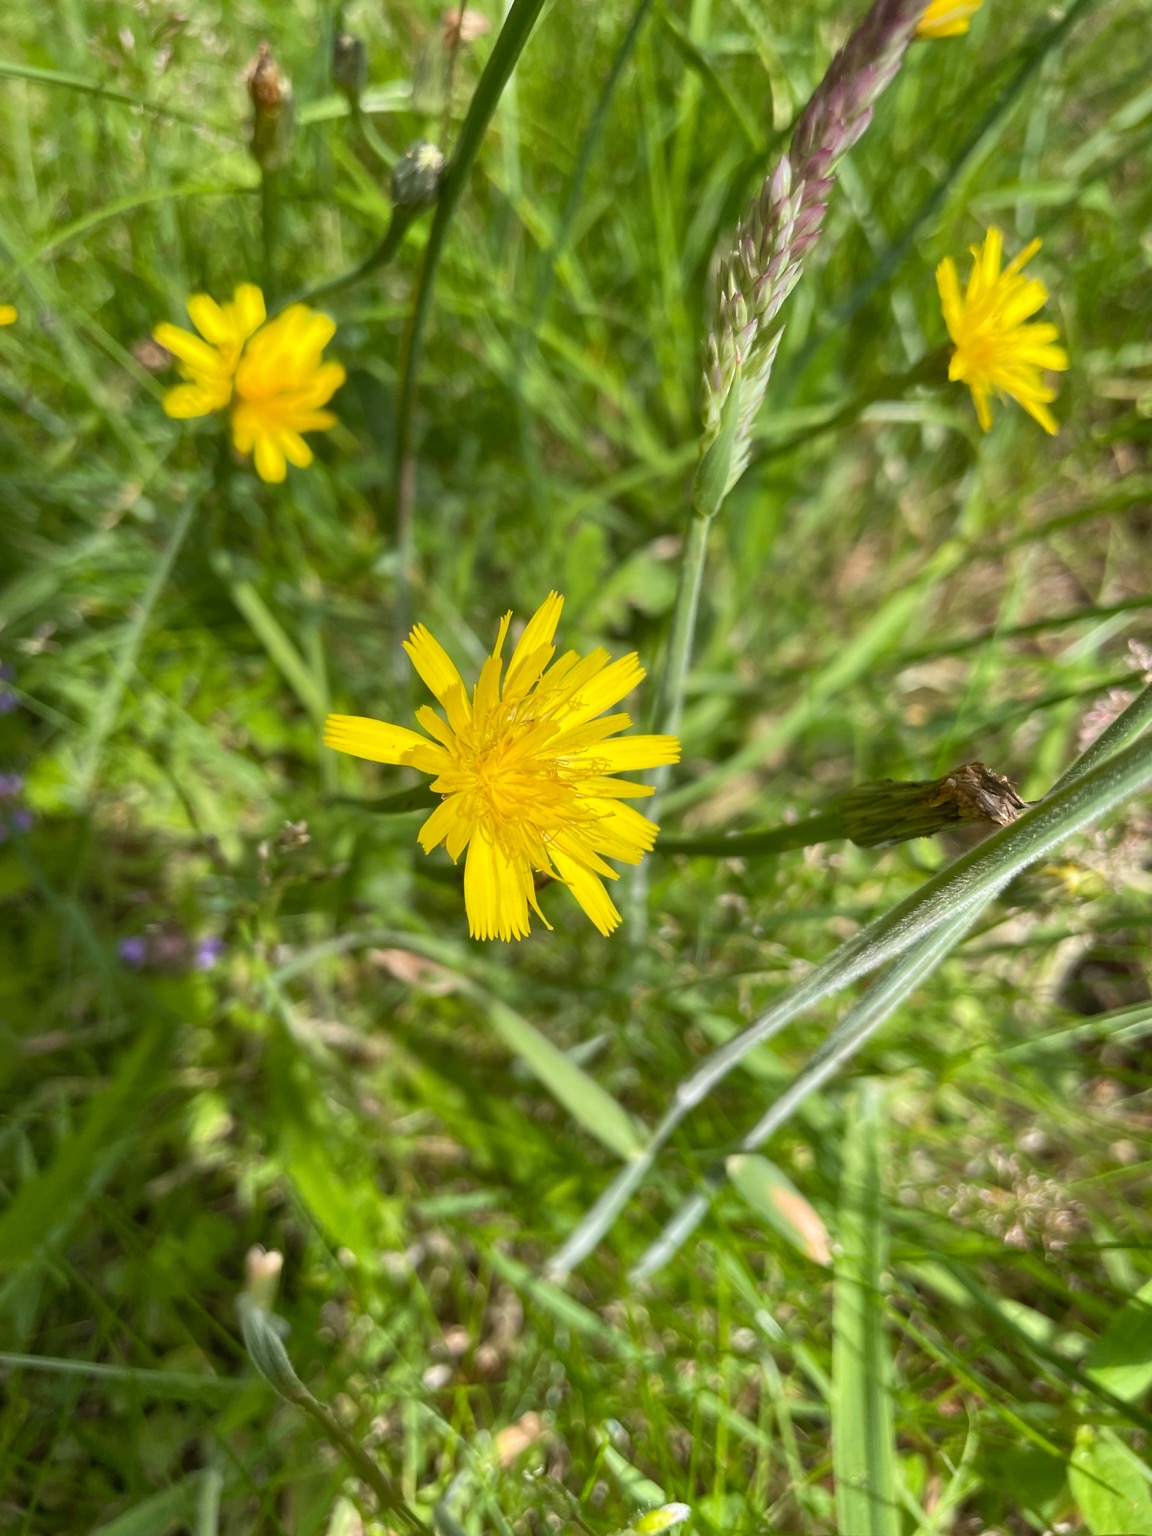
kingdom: Plantae
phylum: Tracheophyta
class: Magnoliopsida
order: Asterales
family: Asteraceae
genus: Hypochaeris
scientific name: Hypochaeris radicata
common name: Almindelig kongepen
